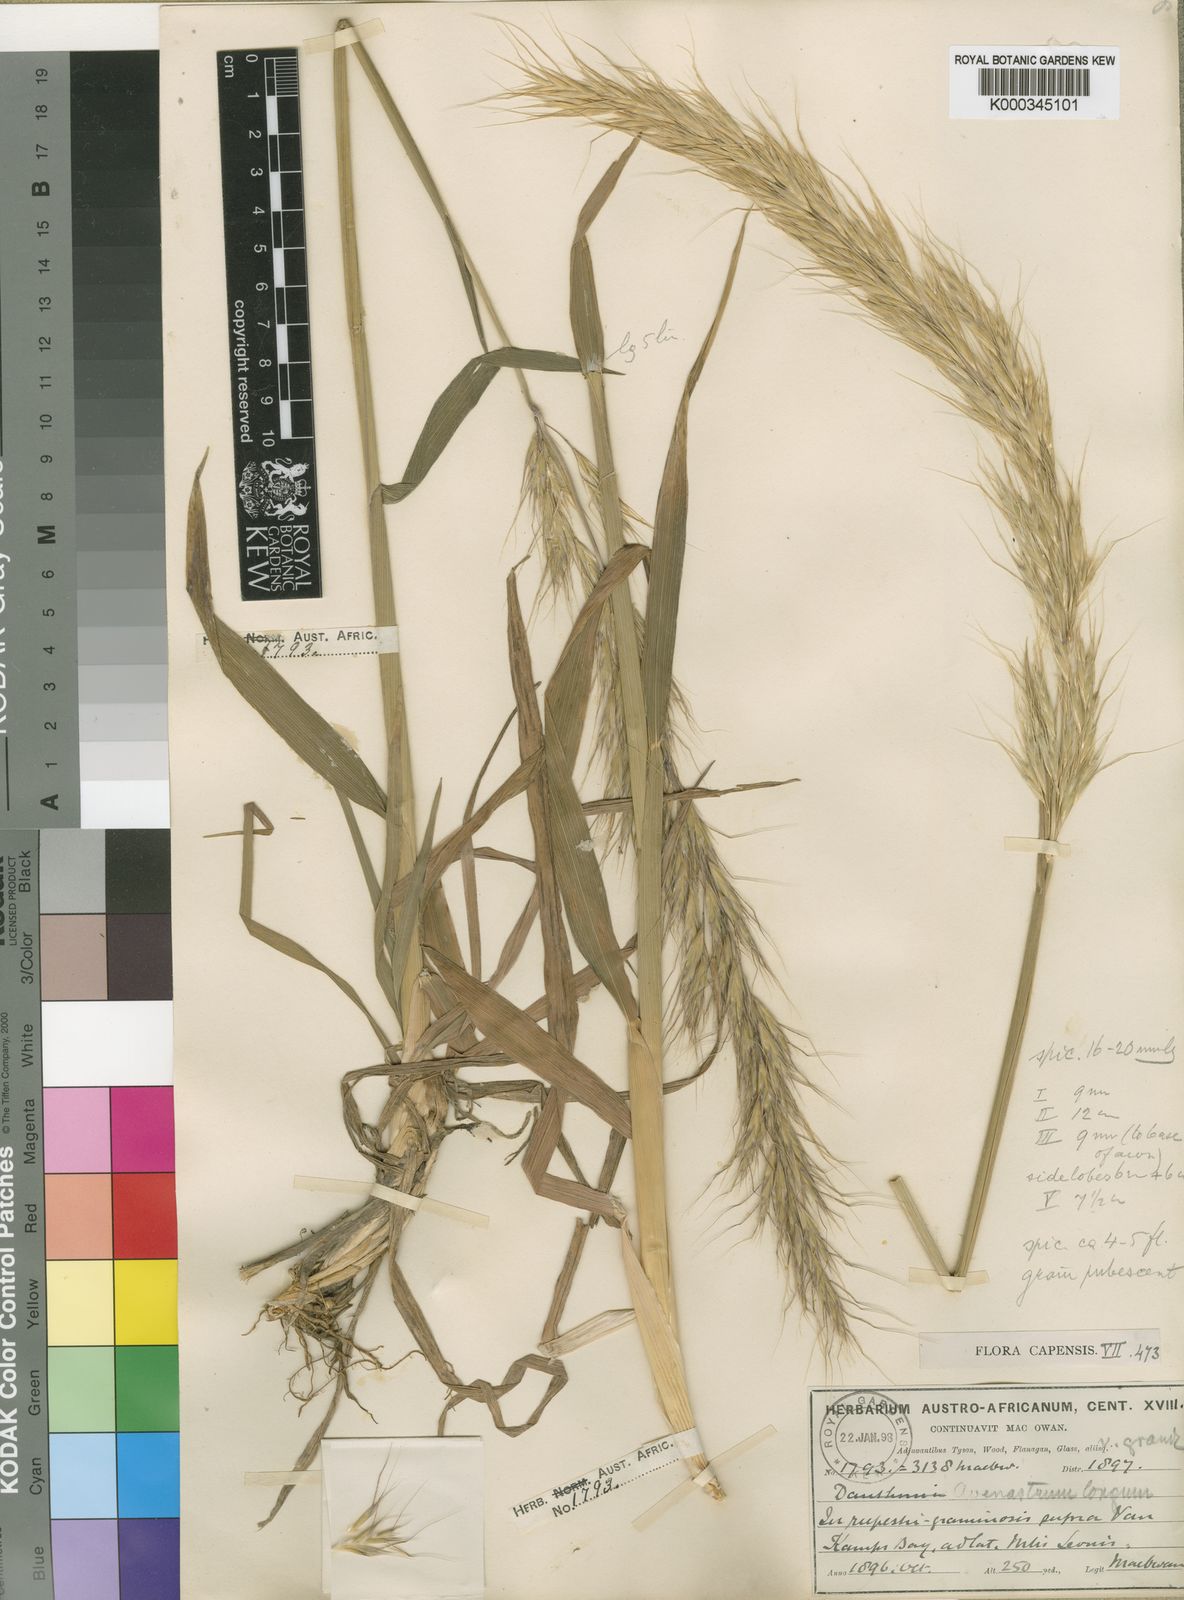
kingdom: Plantae
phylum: Tracheophyta
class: Liliopsida
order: Poales
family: Poaceae
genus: Trisetopsis
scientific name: Trisetopsis longa
